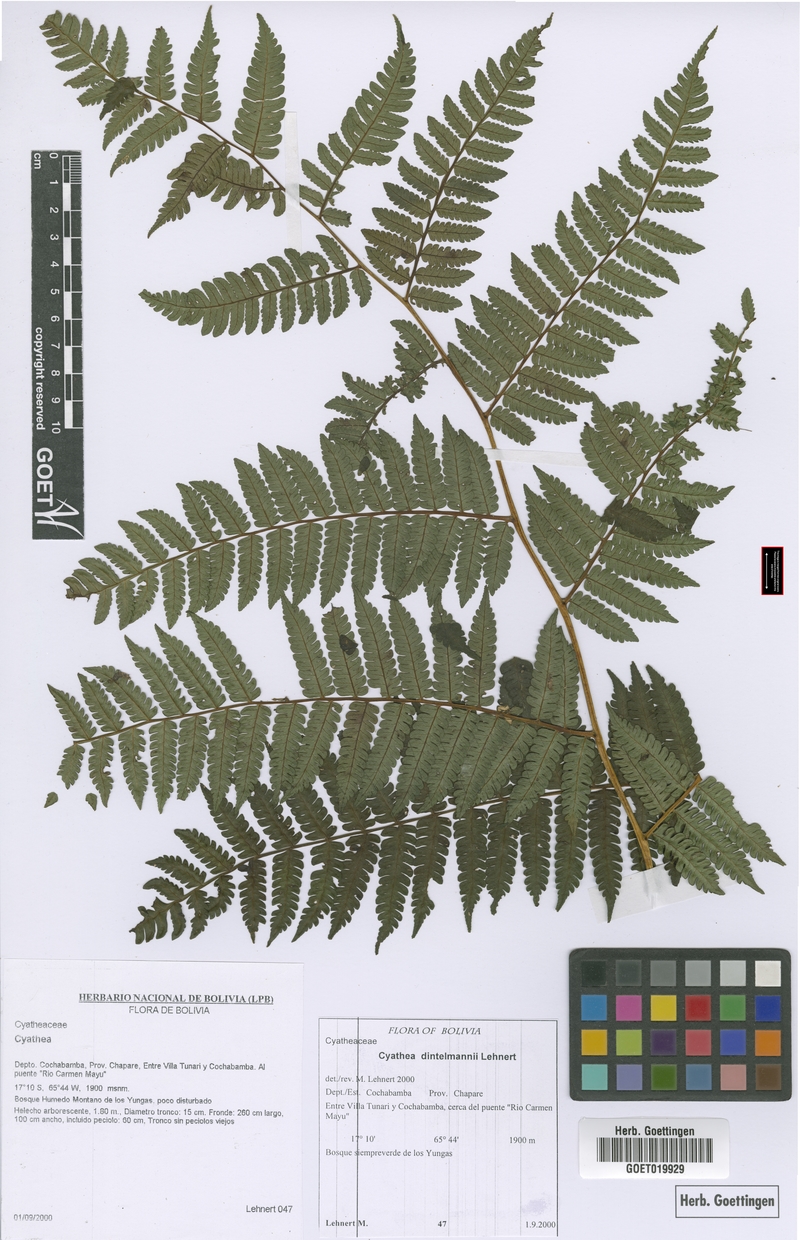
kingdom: Plantae
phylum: Tracheophyta
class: Polypodiopsida
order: Cyatheales
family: Cyatheaceae
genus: Cyathea
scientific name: Cyathea dintelmannii
